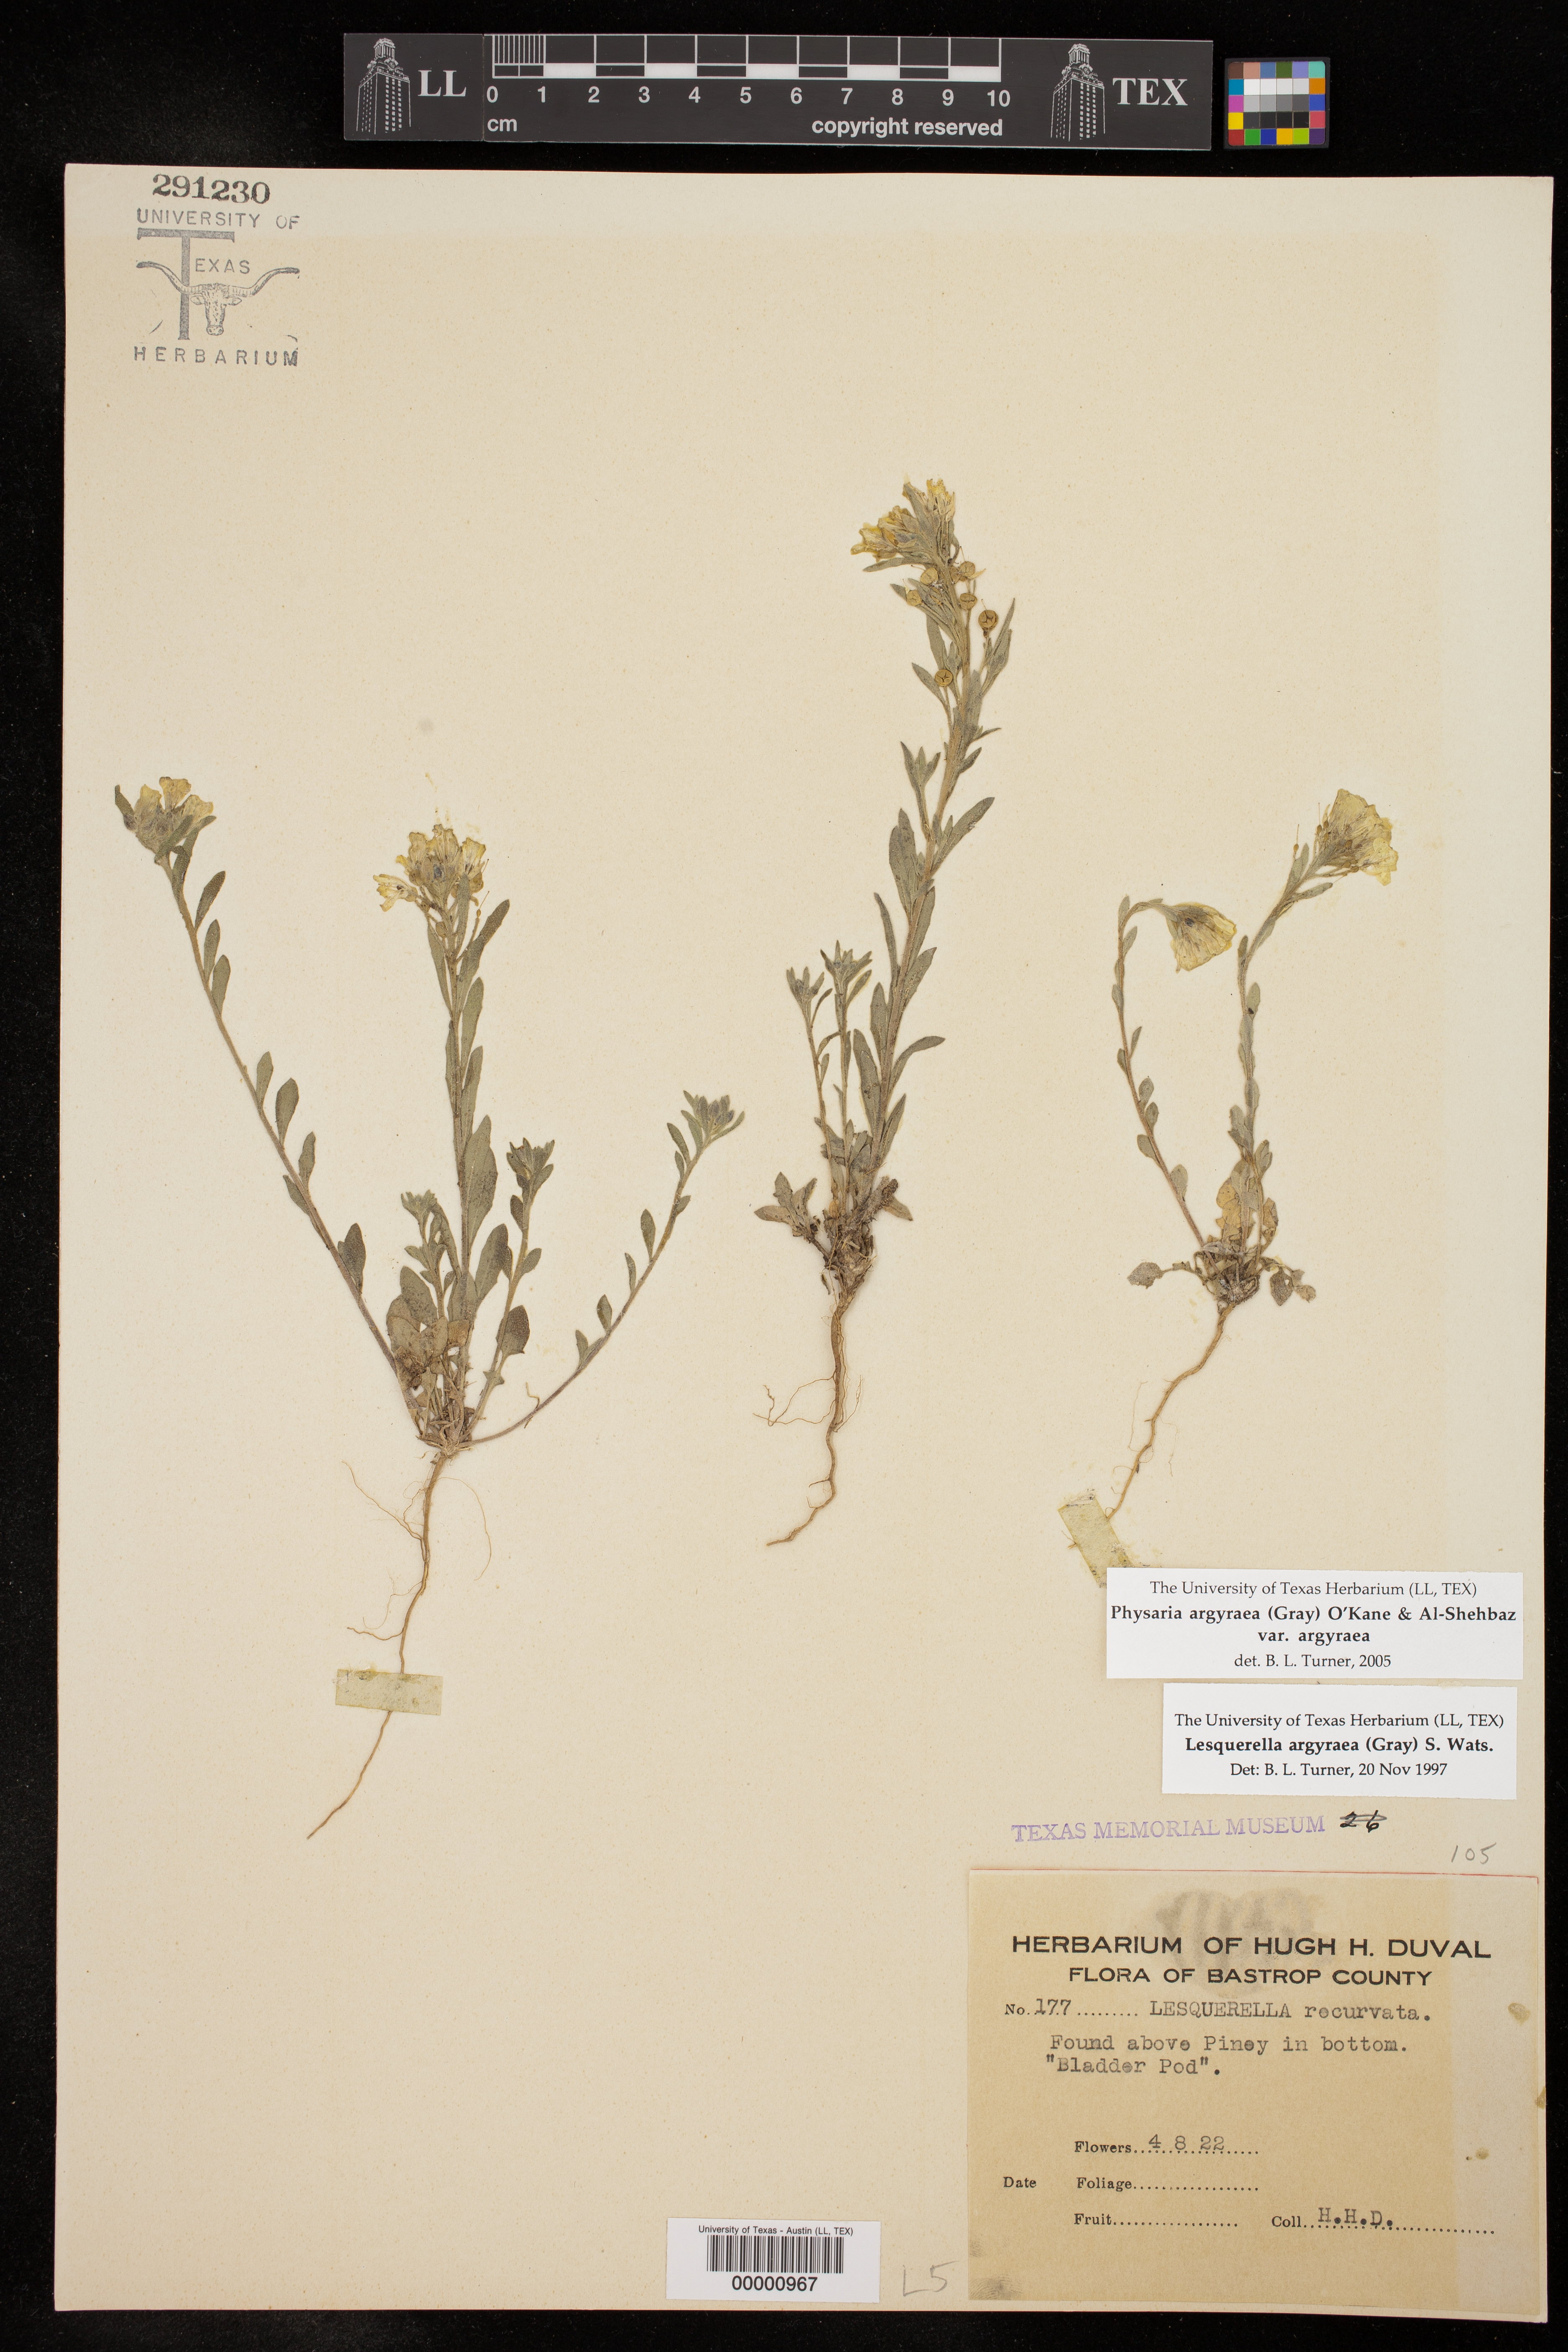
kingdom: Plantae
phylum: Tracheophyta
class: Magnoliopsida
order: Brassicales
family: Brassicaceae
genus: Physaria
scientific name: Physaria argyraea
